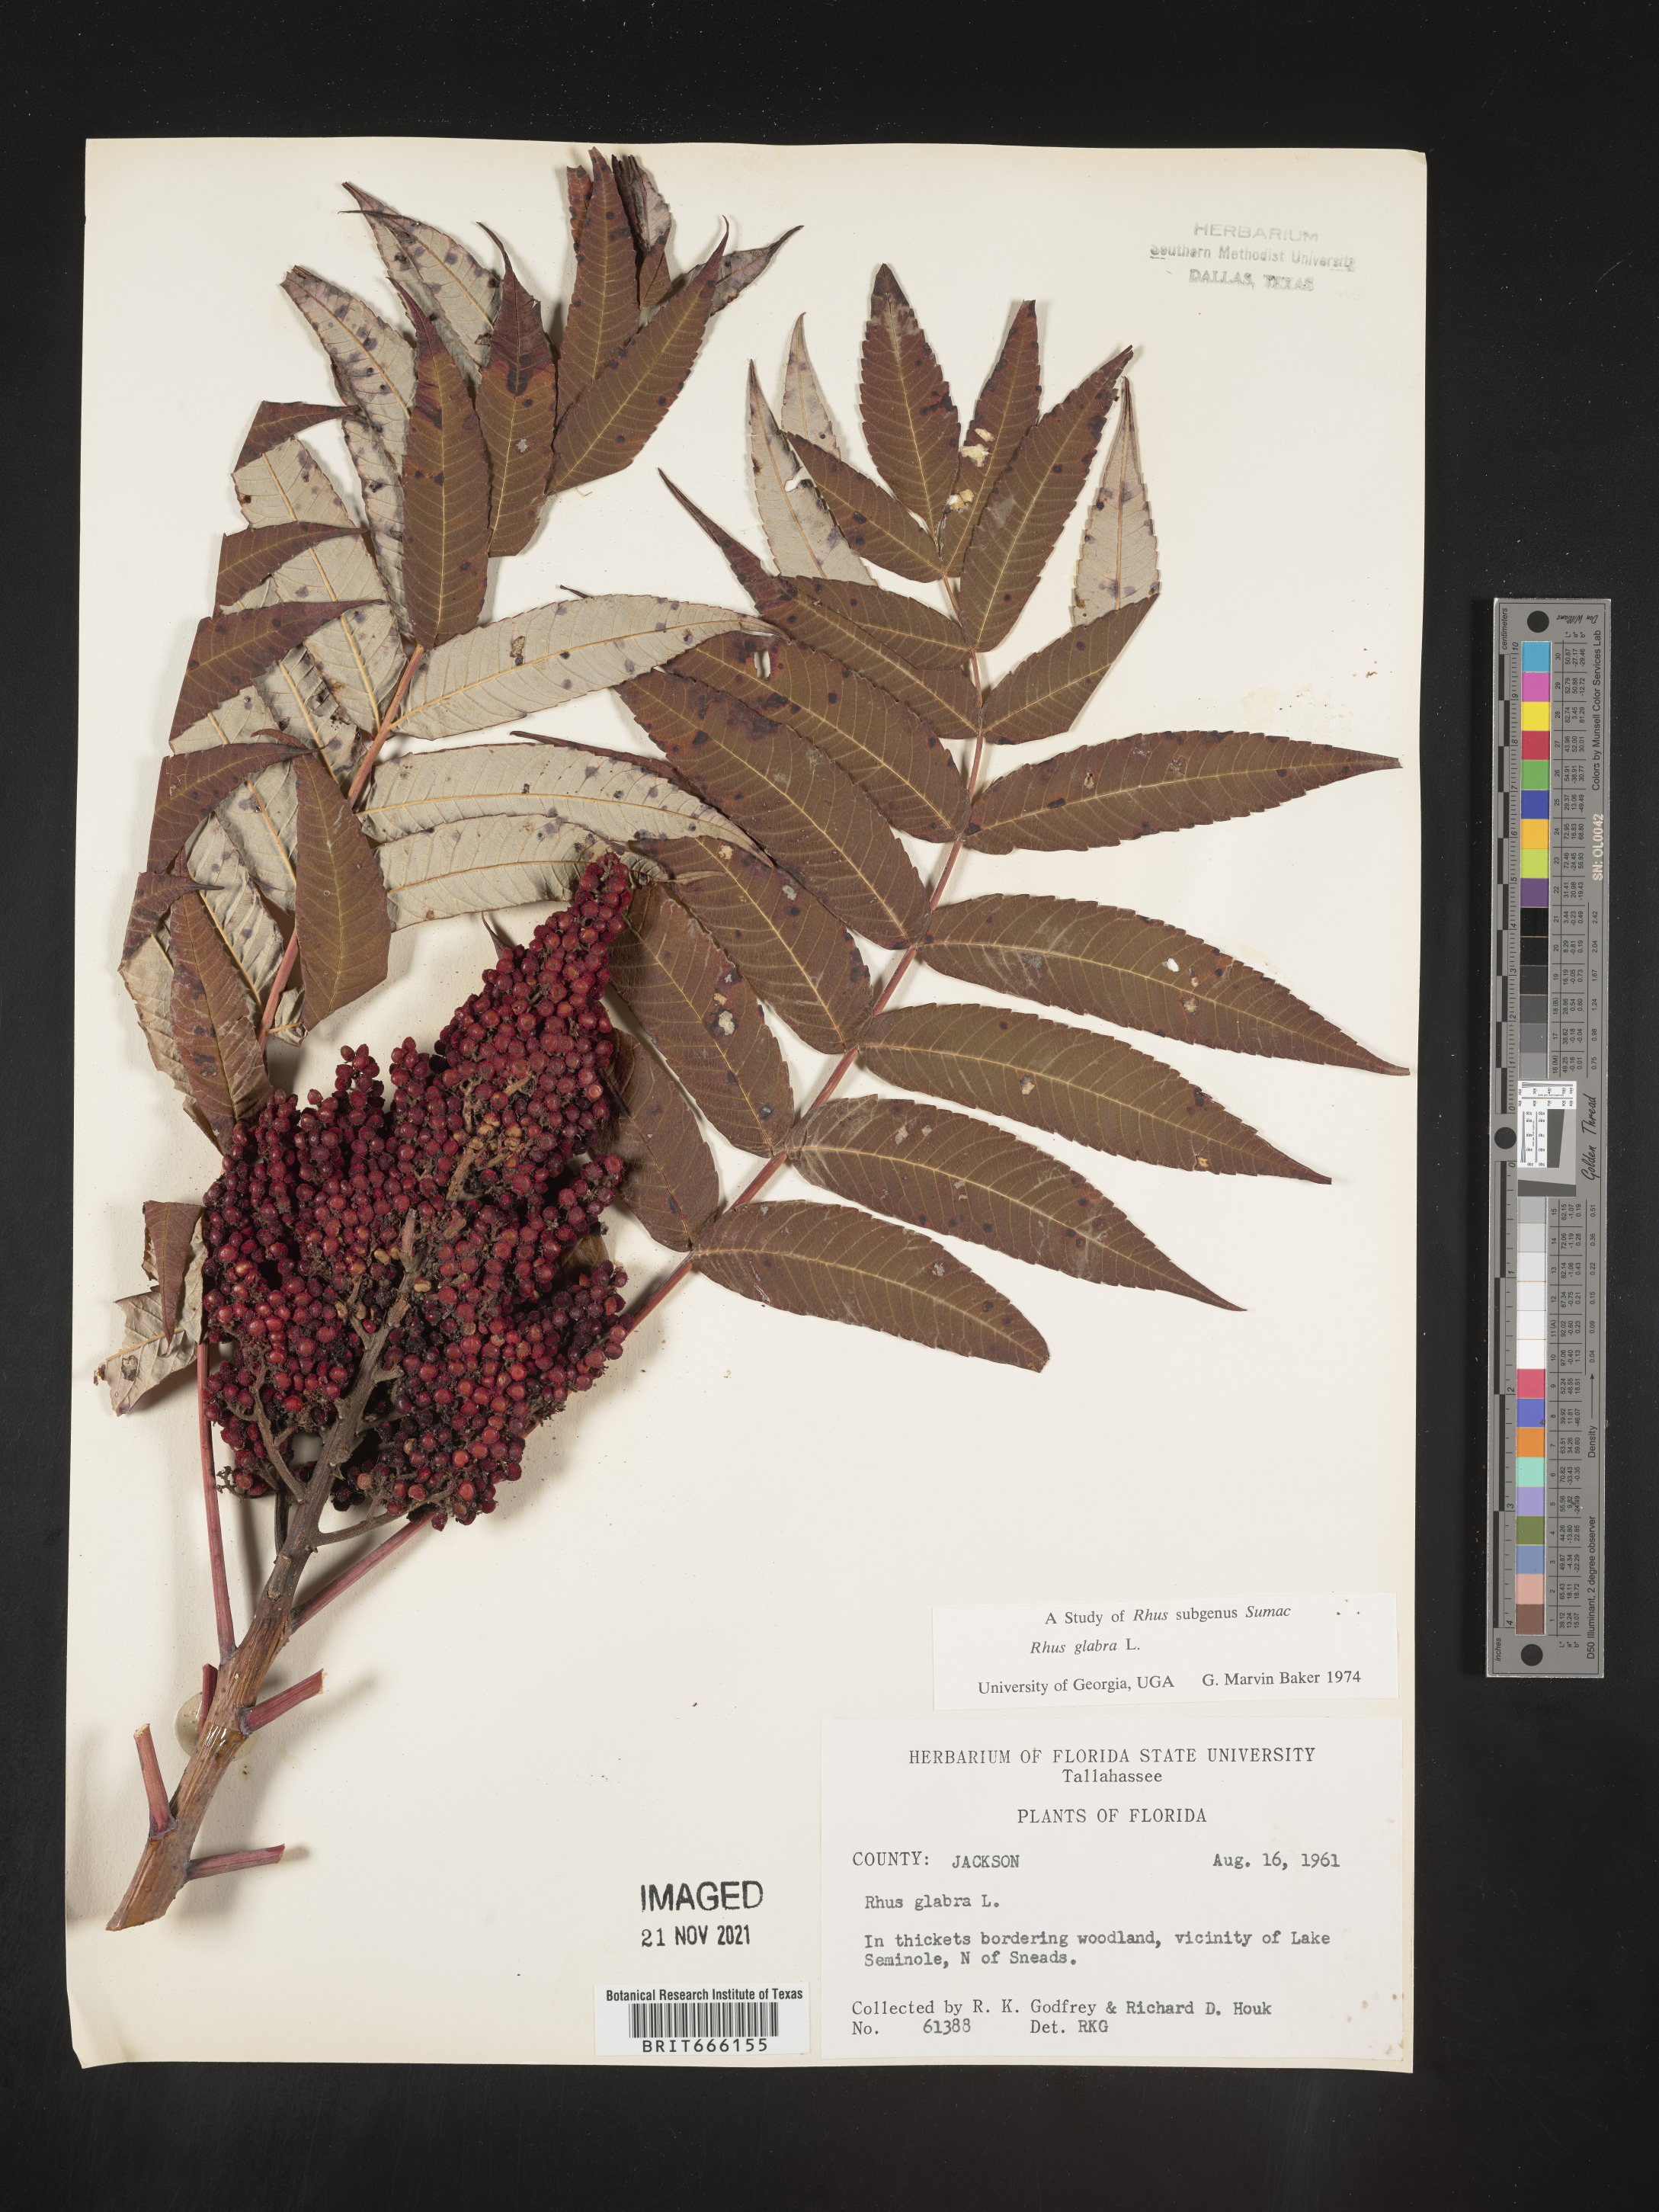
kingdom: Plantae
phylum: Tracheophyta
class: Magnoliopsida
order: Sapindales
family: Anacardiaceae
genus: Rhus
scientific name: Rhus glabra
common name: Scarlet sumac
